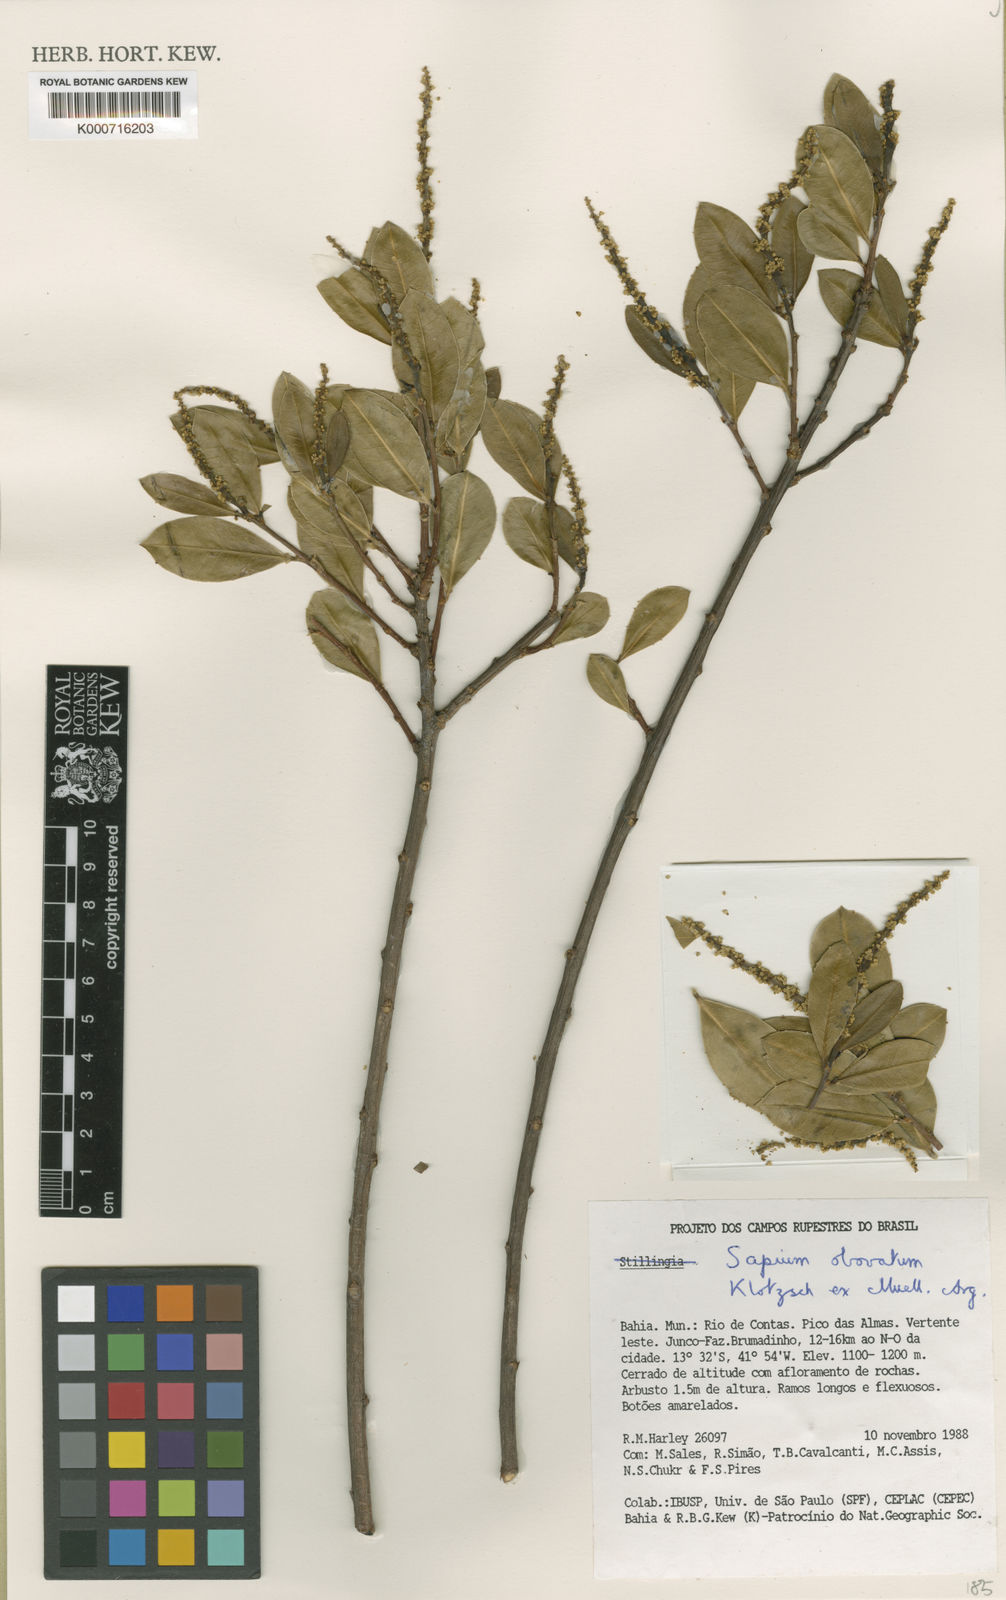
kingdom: Plantae
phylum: Tracheophyta
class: Magnoliopsida
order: Malpighiales
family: Euphorbiaceae
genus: Sapium
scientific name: Sapium
